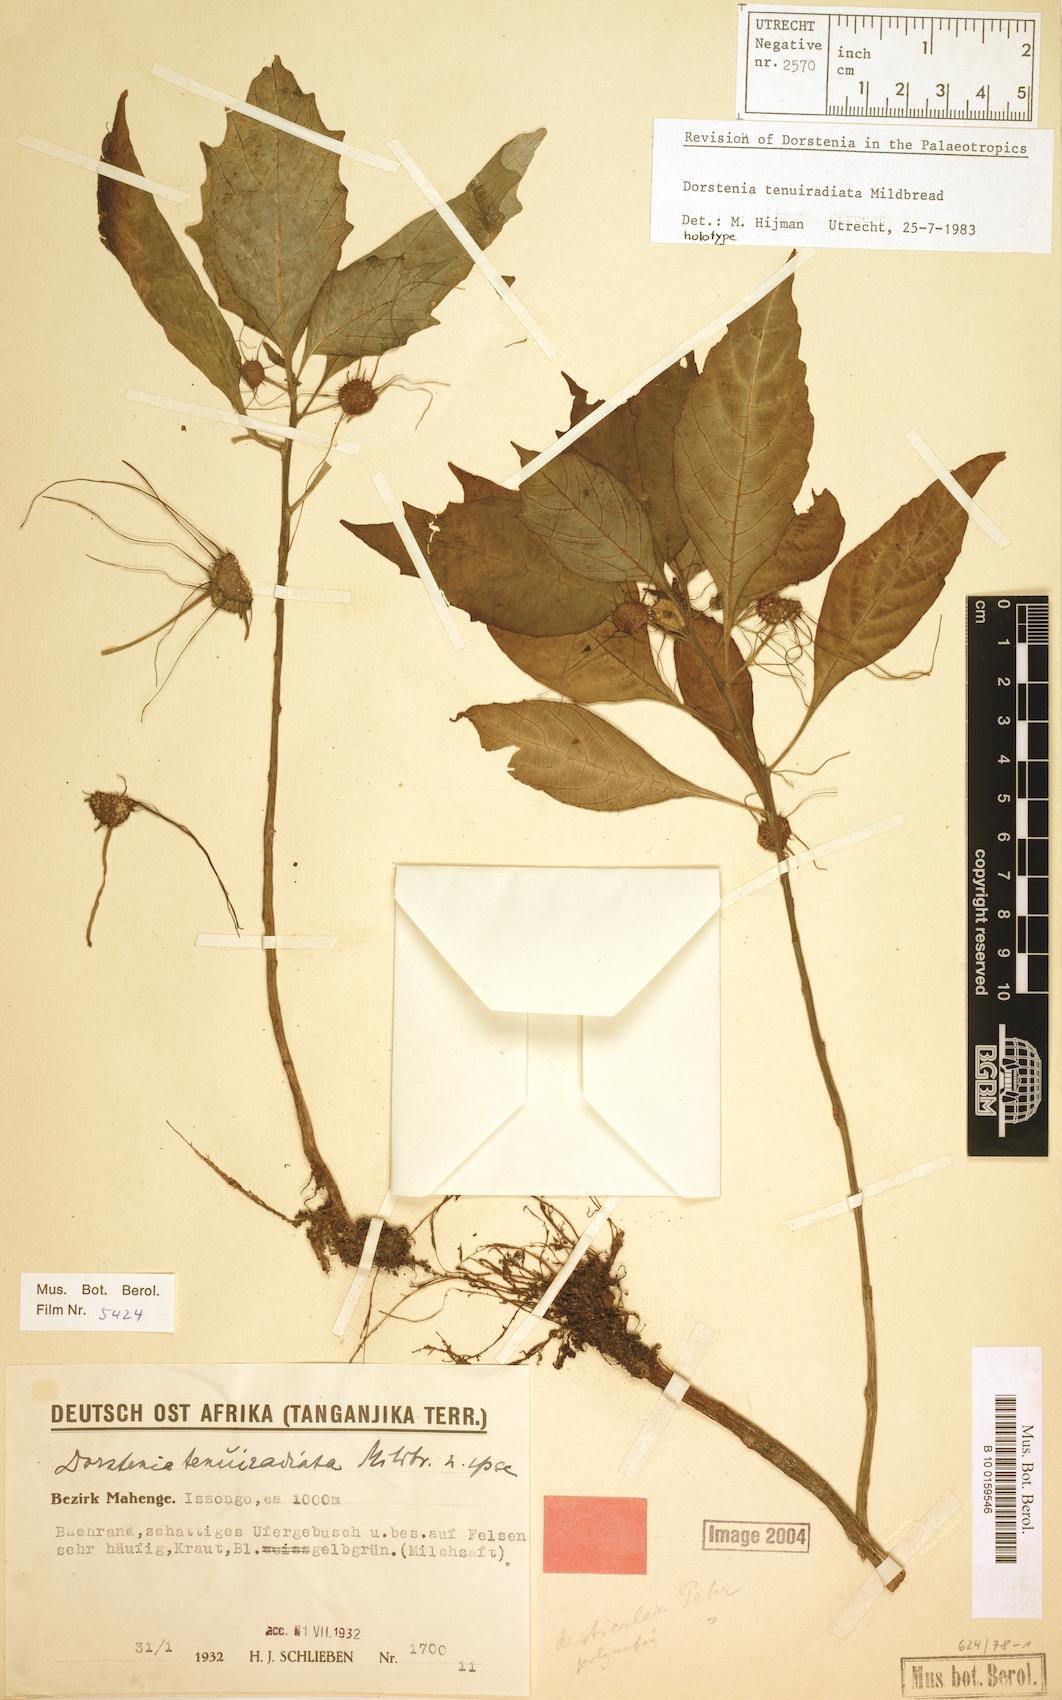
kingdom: Plantae
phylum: Tracheophyta
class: Magnoliopsida
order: Rosales
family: Moraceae
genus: Dorstenia
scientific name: Dorstenia tenuiradiata
